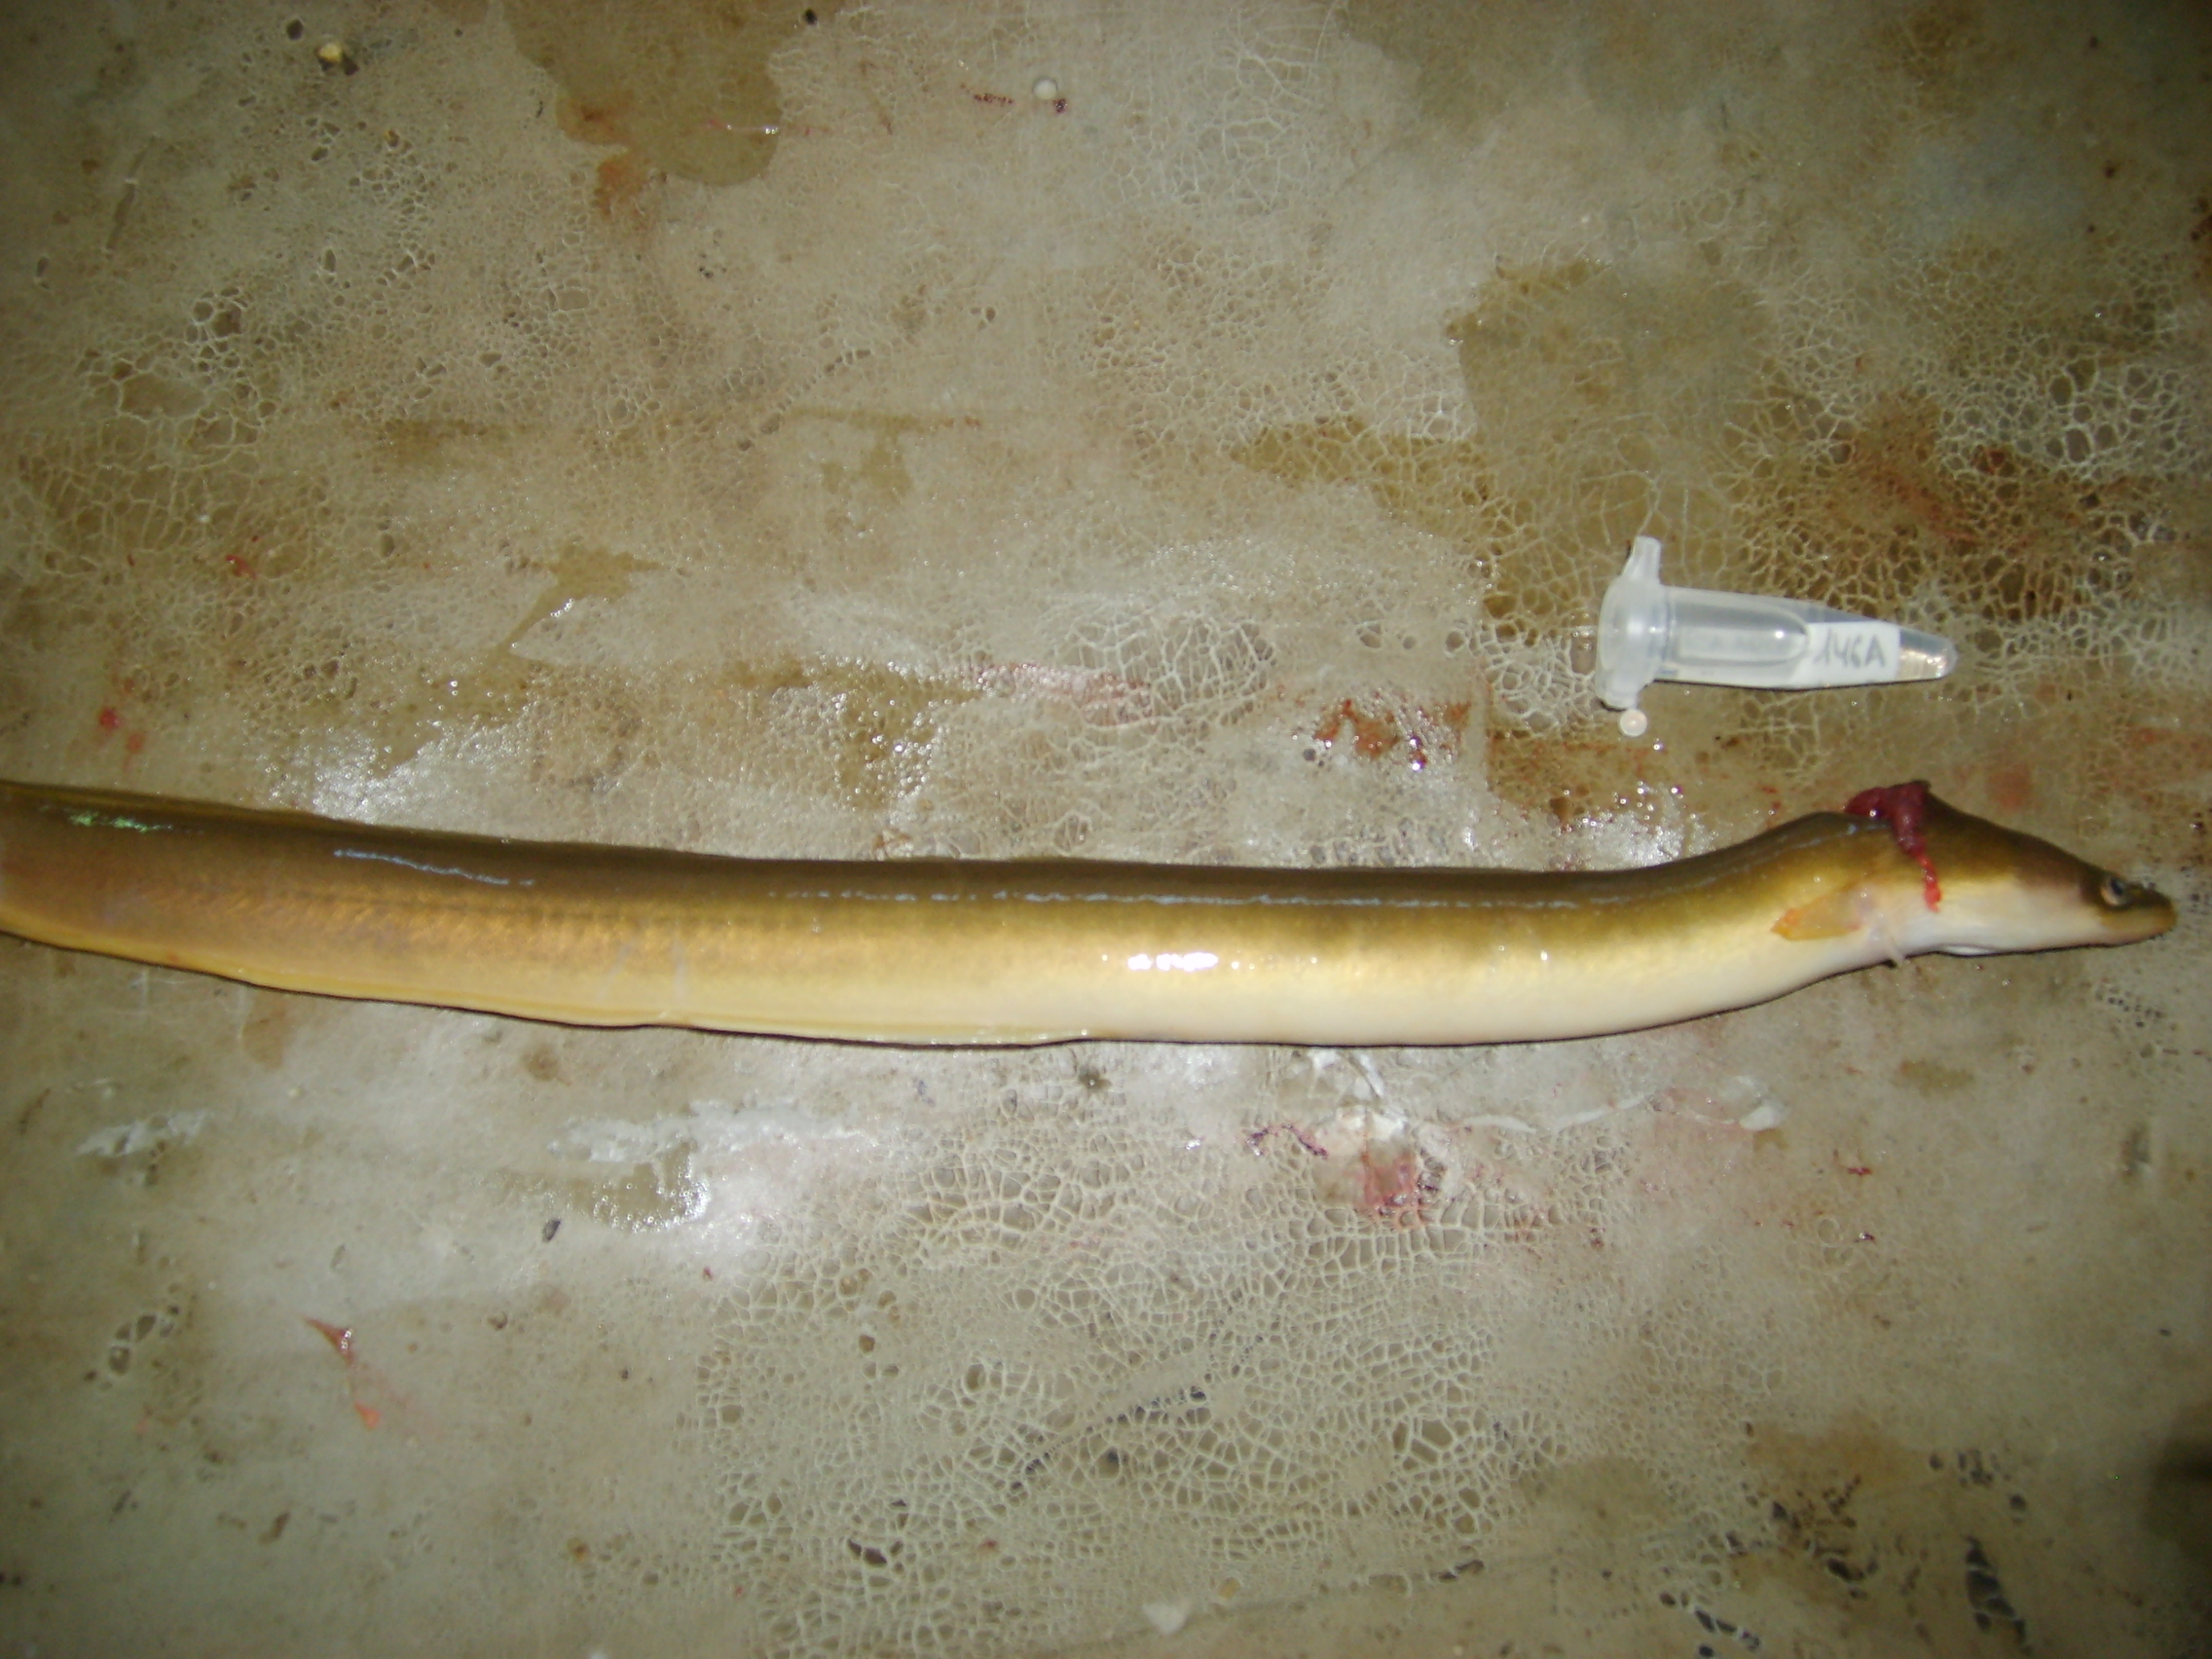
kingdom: Animalia
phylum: Chordata
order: Anguilliformes
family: Anguillidae
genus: Anguilla
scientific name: Anguilla mossambica
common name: African longfin eel
